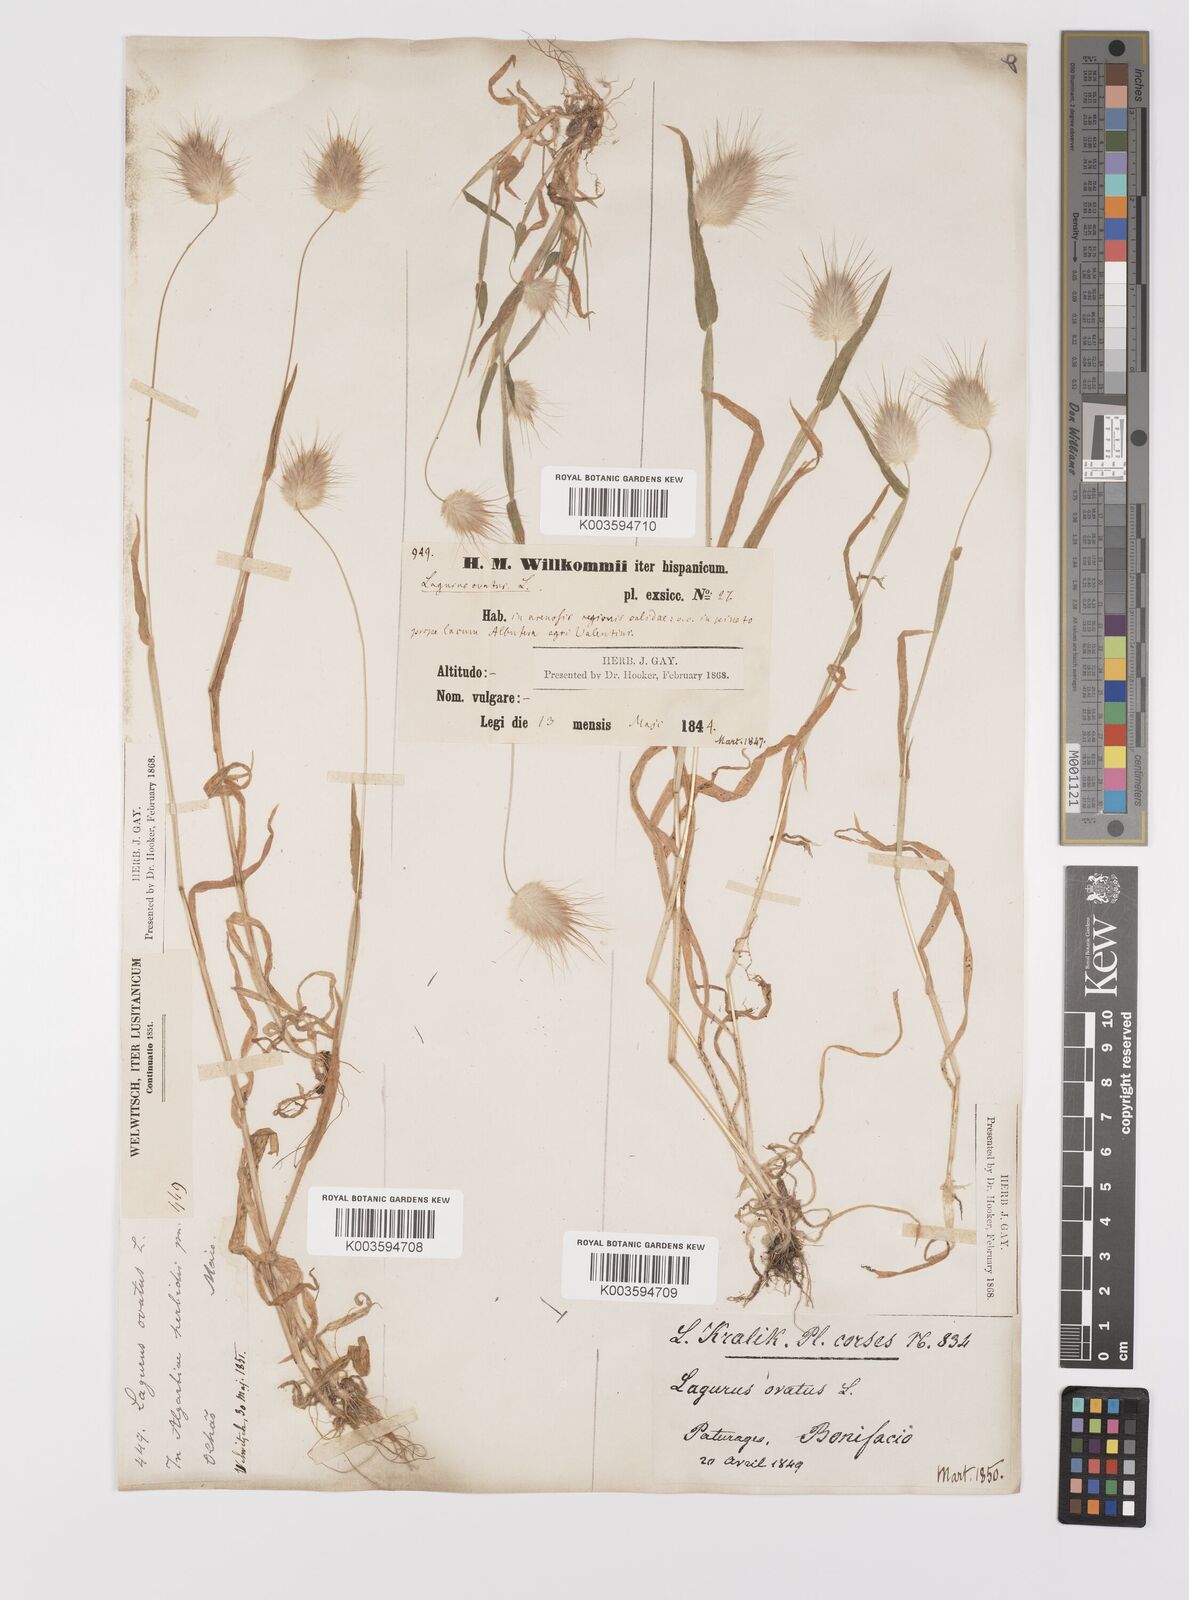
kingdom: Plantae
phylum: Tracheophyta
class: Liliopsida
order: Poales
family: Poaceae
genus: Lagurus
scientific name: Lagurus ovatus
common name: Hare's-tail
